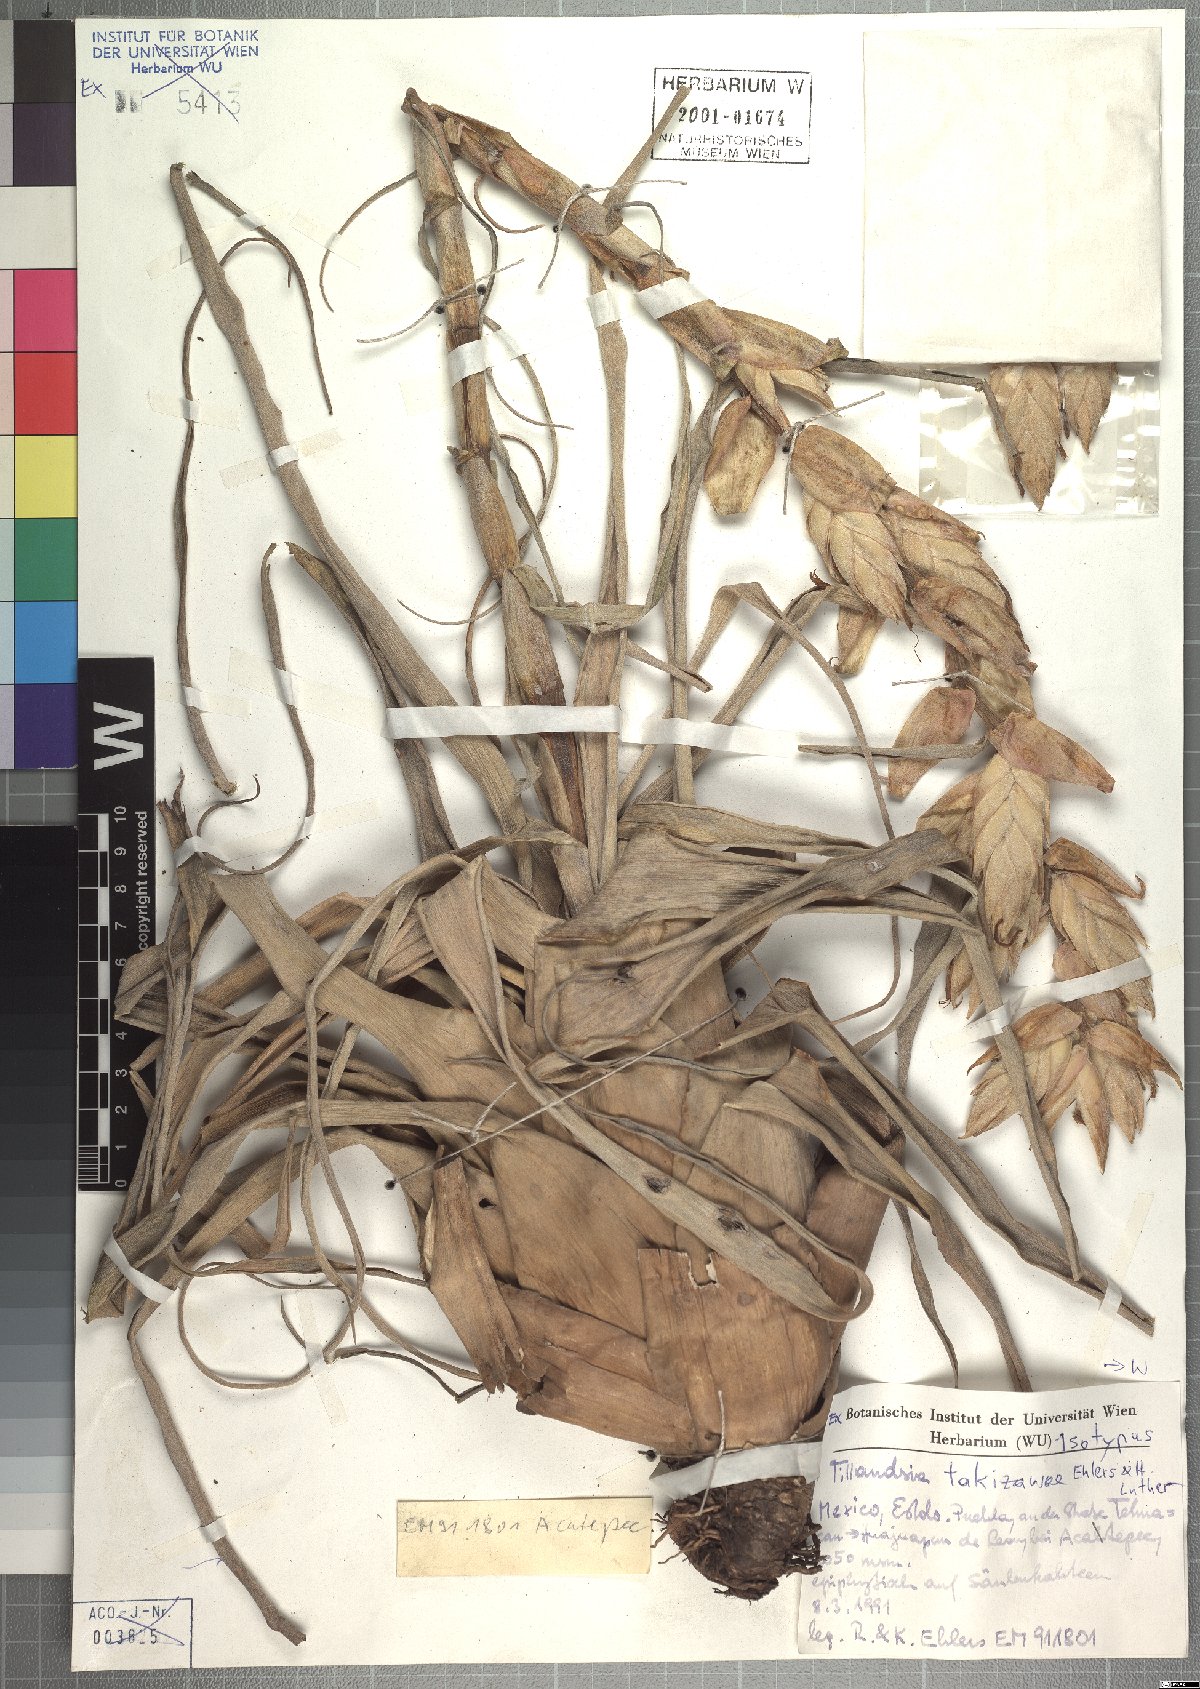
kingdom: Plantae
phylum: Tracheophyta
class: Liliopsida
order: Poales
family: Bromeliaceae
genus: Tillandsia
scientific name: Tillandsia takizawae
